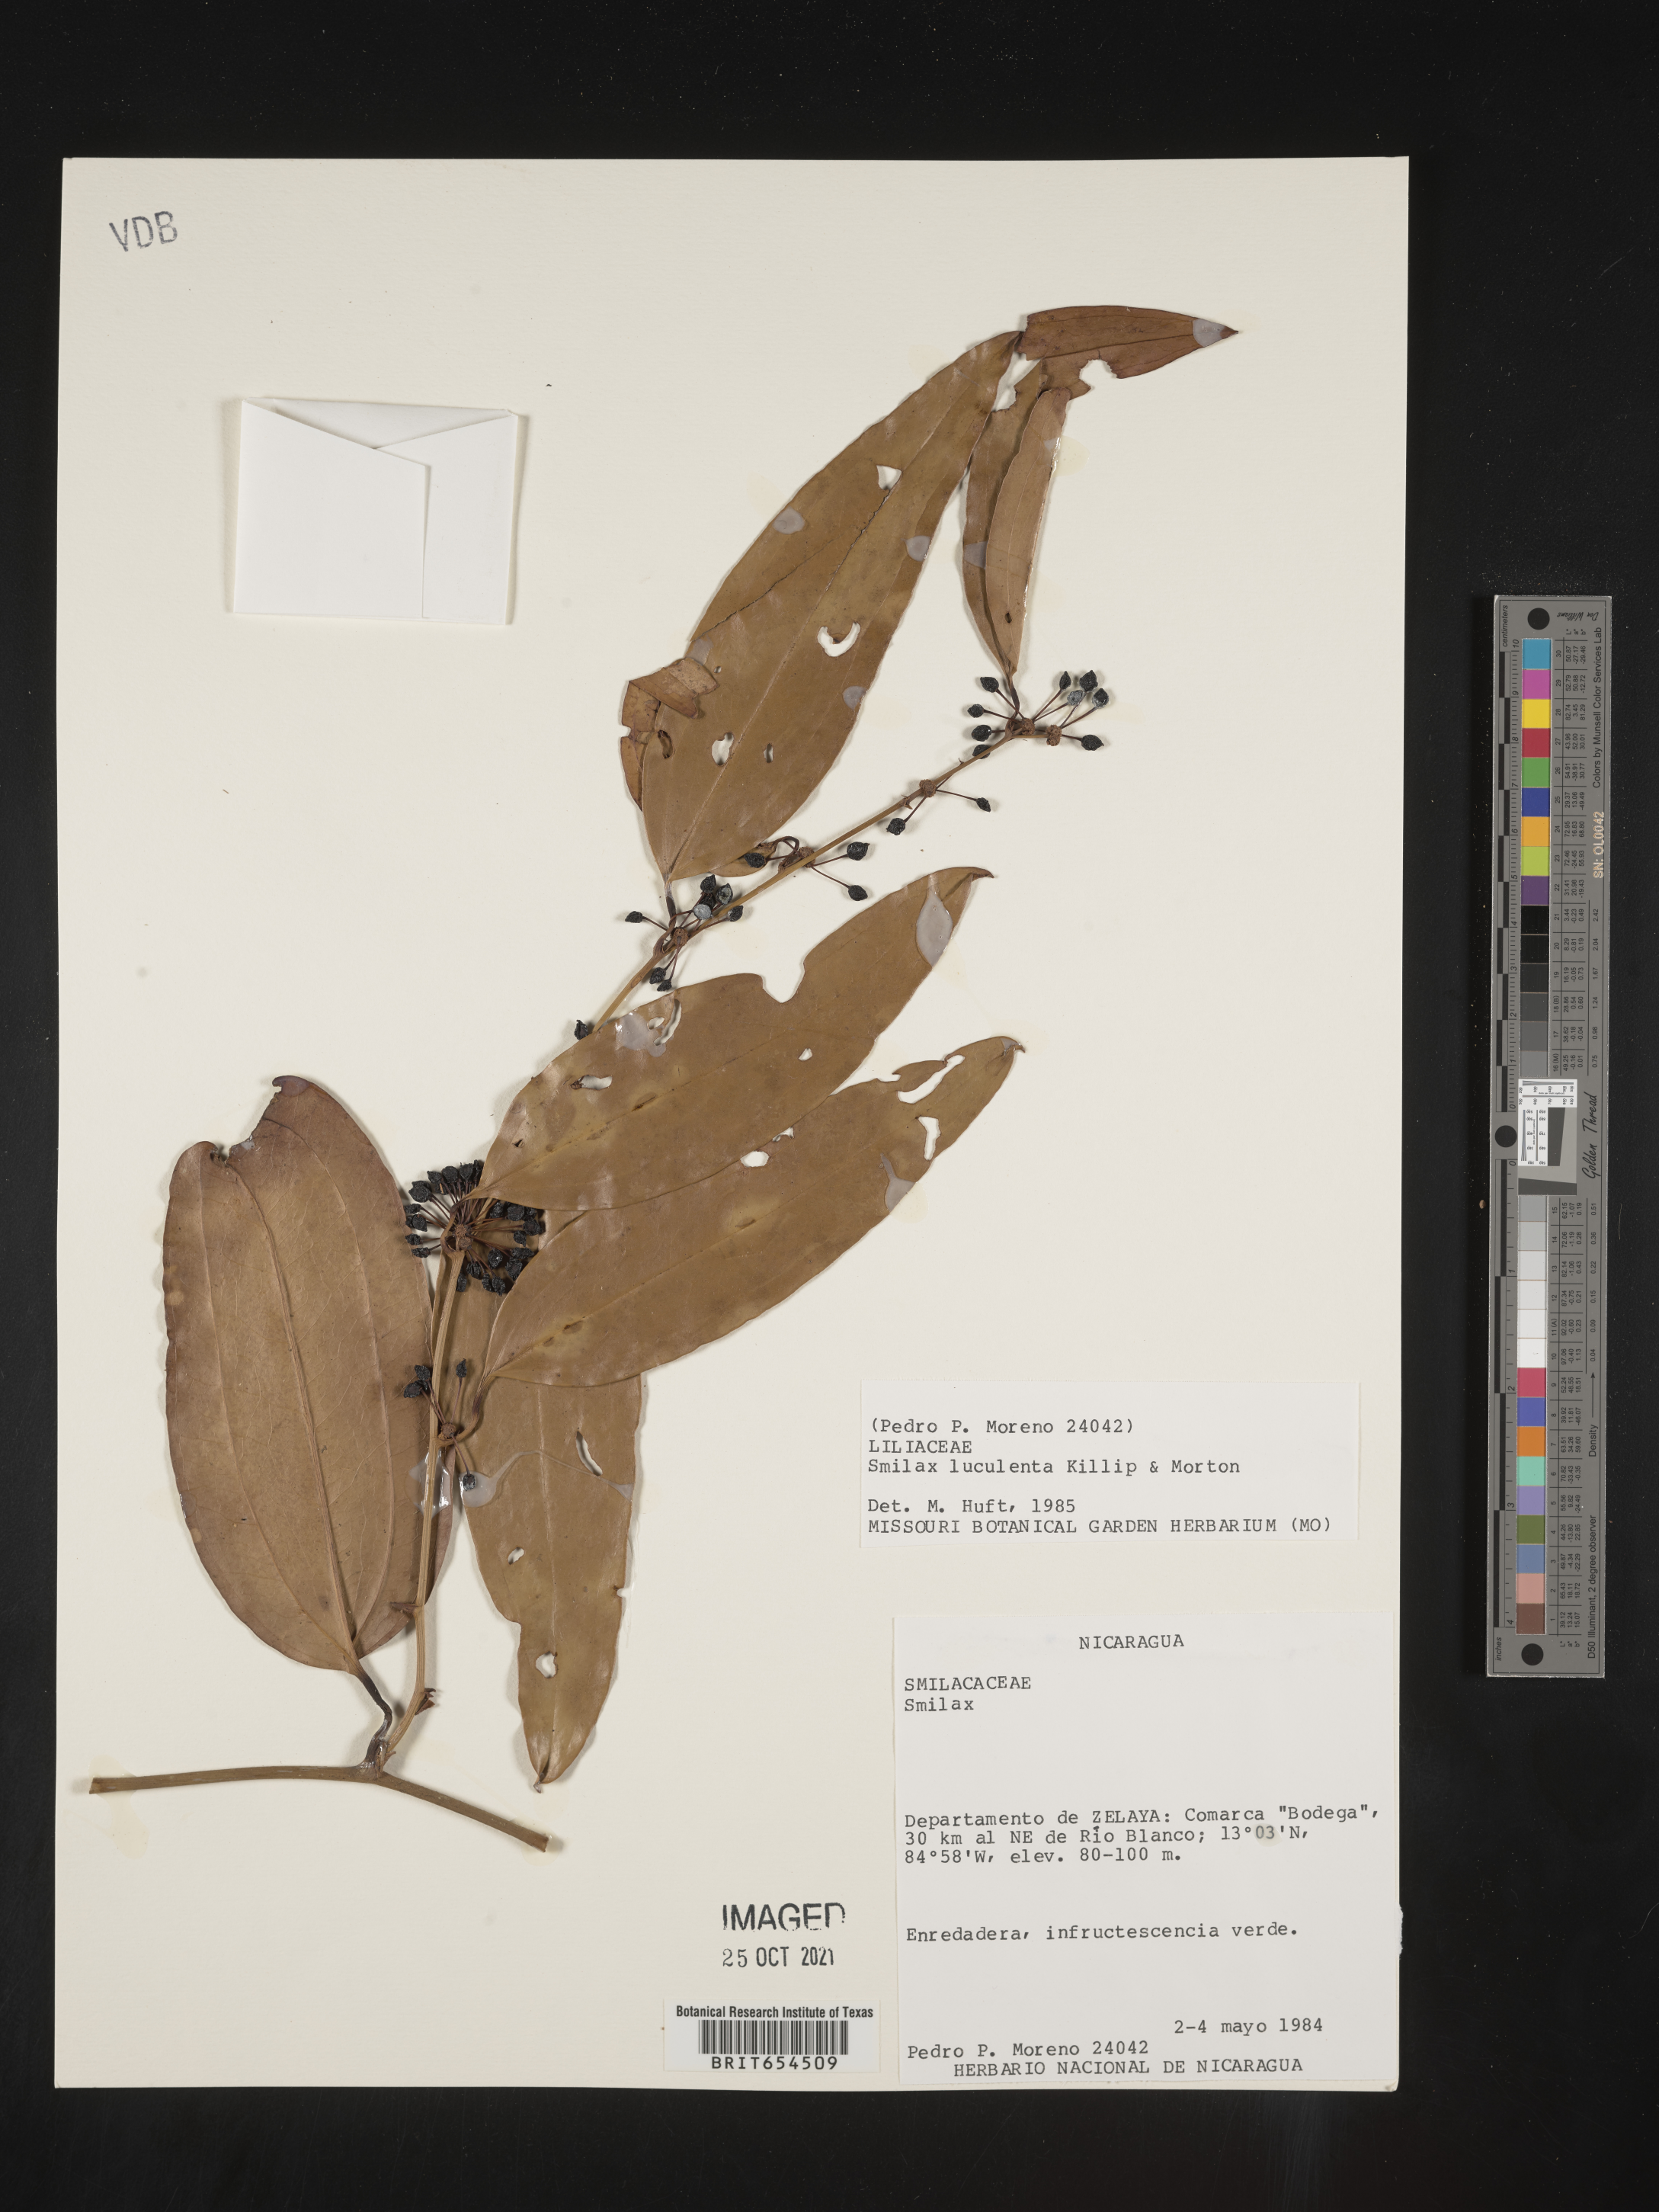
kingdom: Plantae
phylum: Tracheophyta
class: Liliopsida
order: Liliales
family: Smilacaceae
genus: Smilax
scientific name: Smilax
